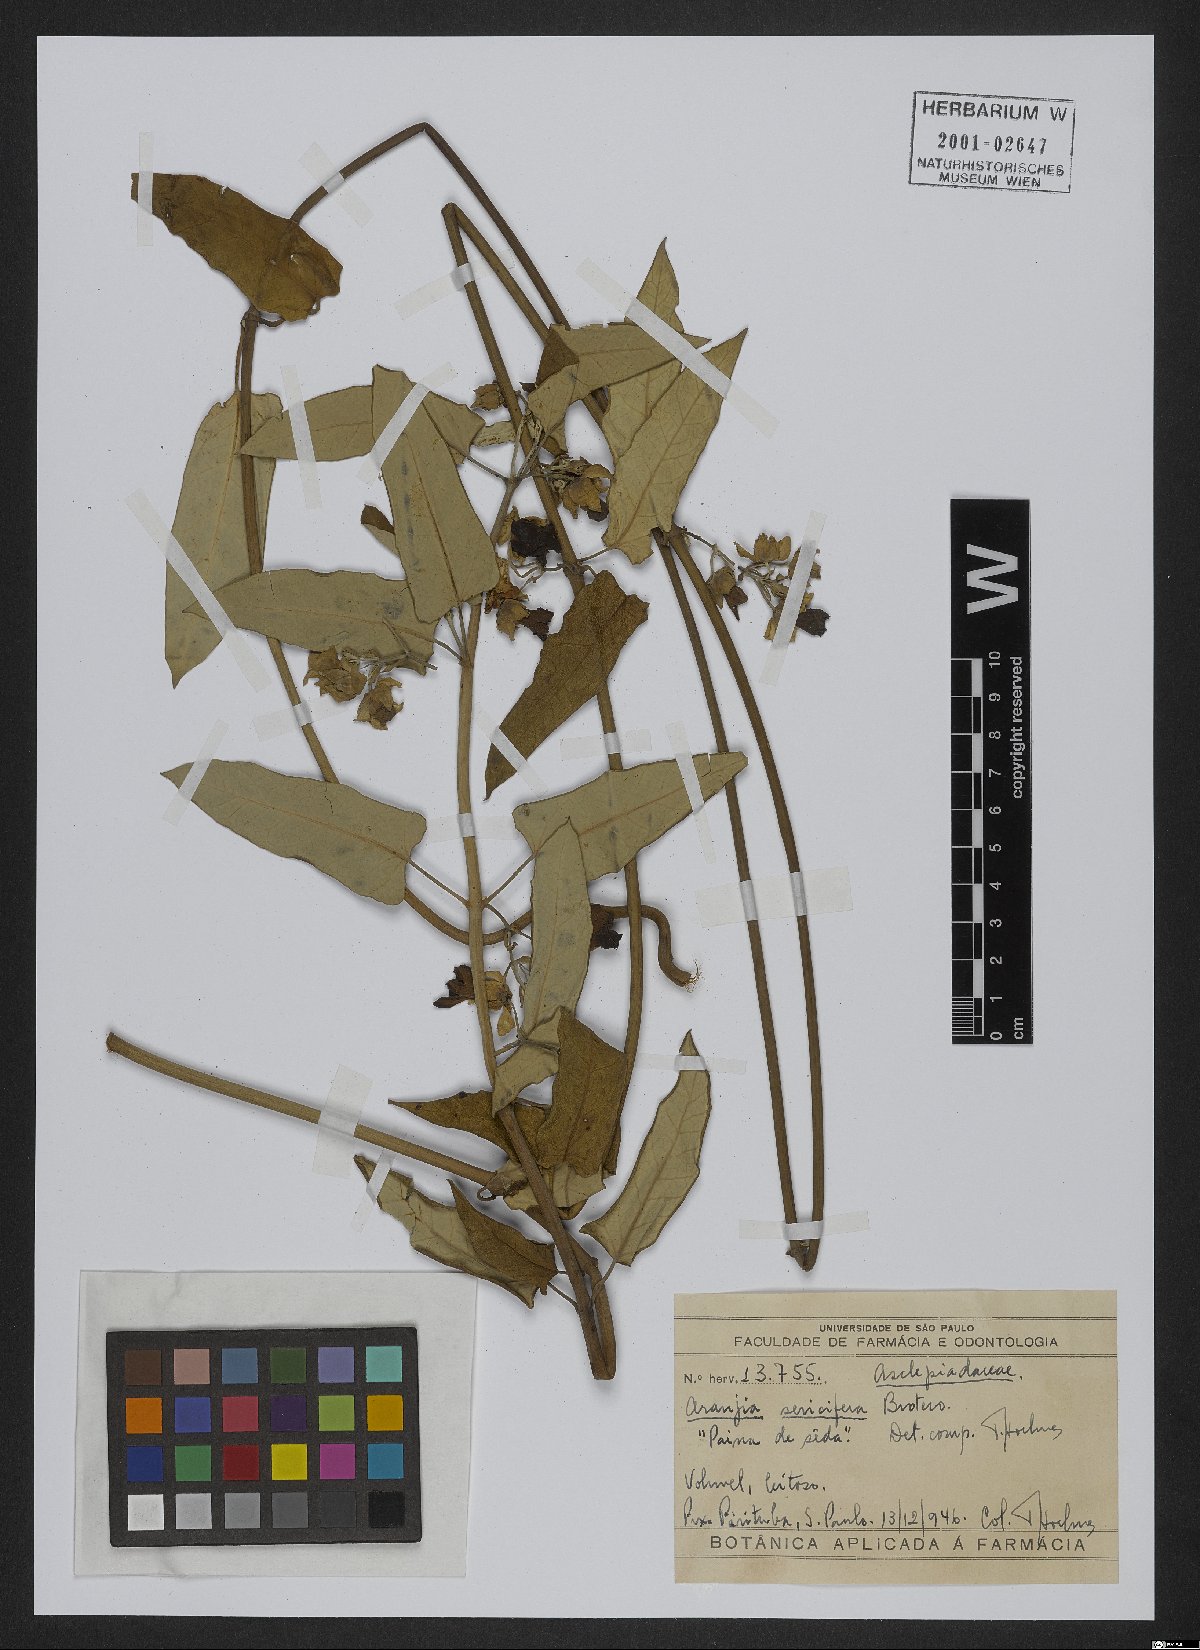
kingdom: Plantae
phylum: Tracheophyta
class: Magnoliopsida
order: Gentianales
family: Apocynaceae
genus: Araujia
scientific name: Araujia sericifera
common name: White bladderflower
